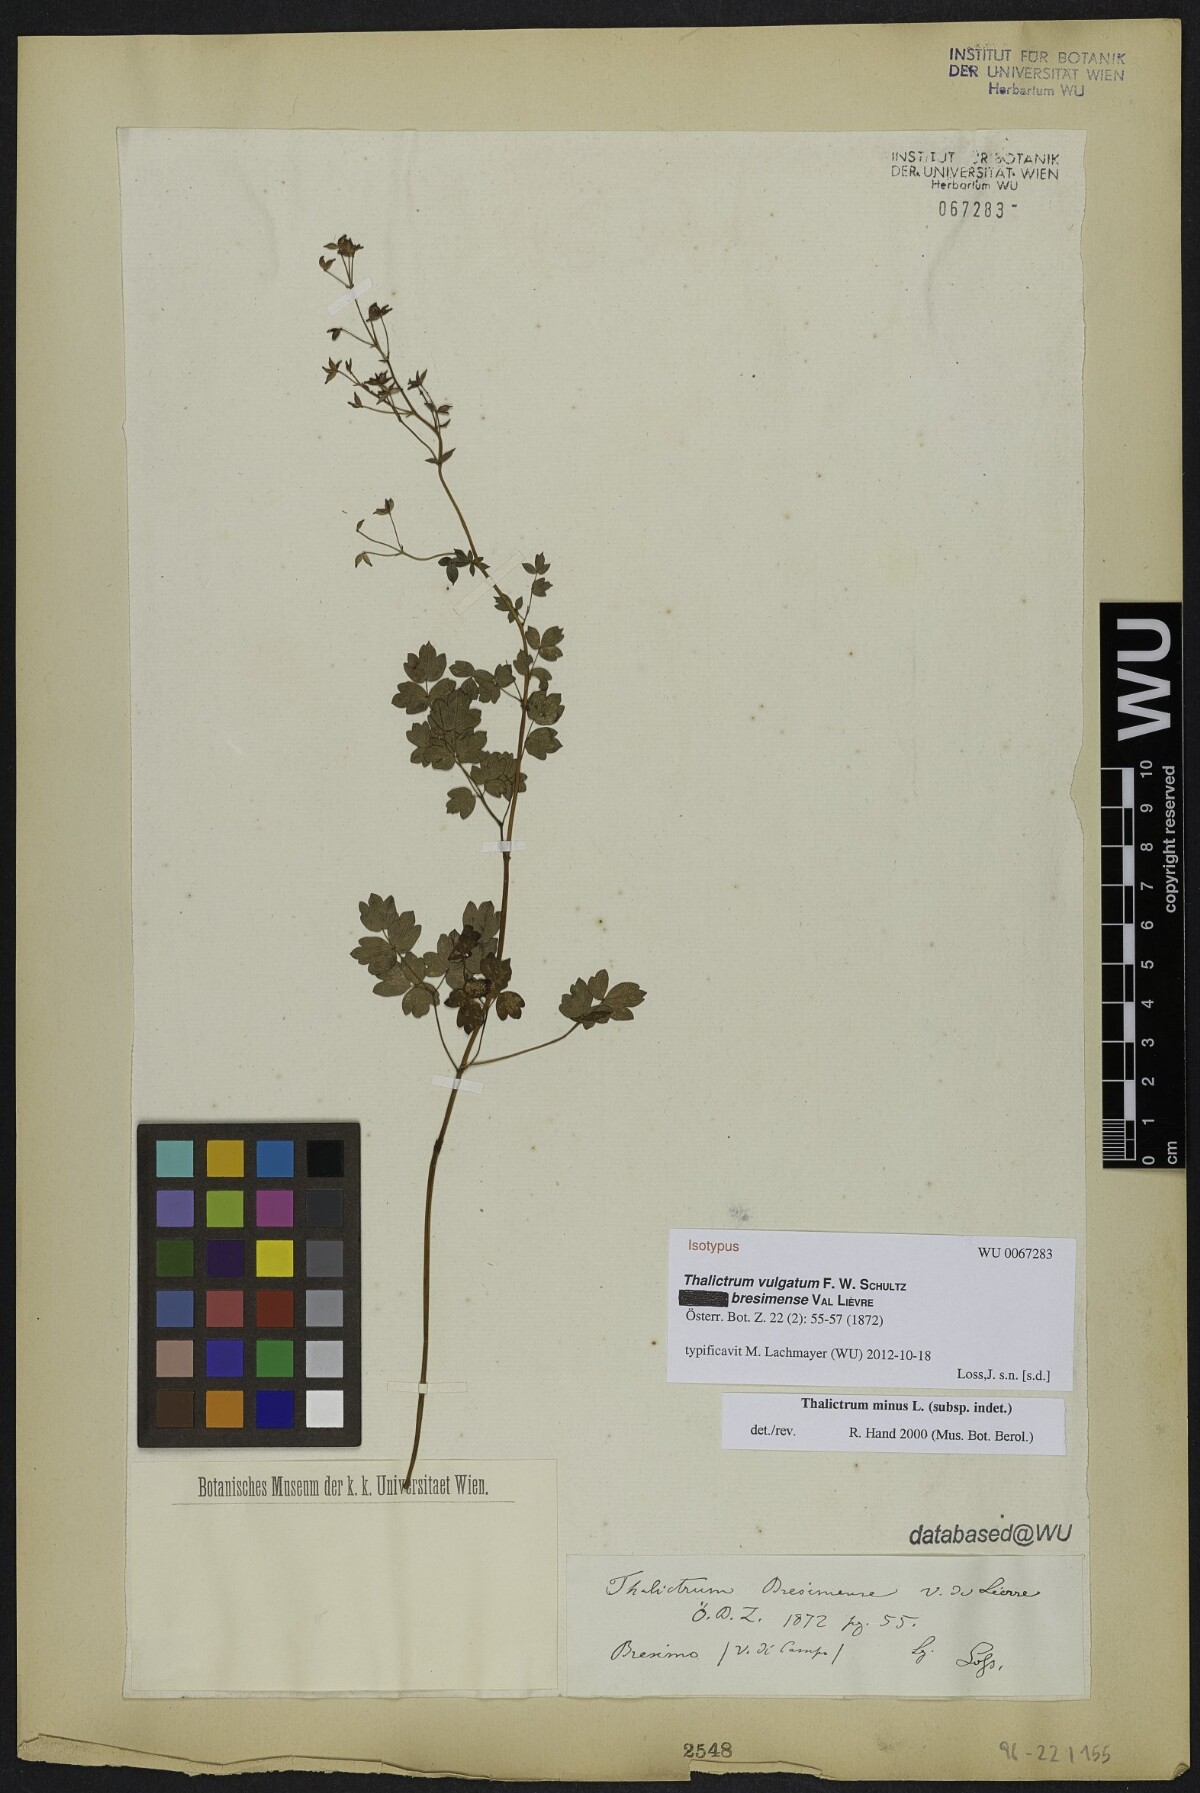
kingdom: Plantae
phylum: Tracheophyta
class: Magnoliopsida
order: Ranunculales
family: Ranunculaceae
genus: Thalictrum
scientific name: Thalictrum minus
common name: Lesser meadow-rue
